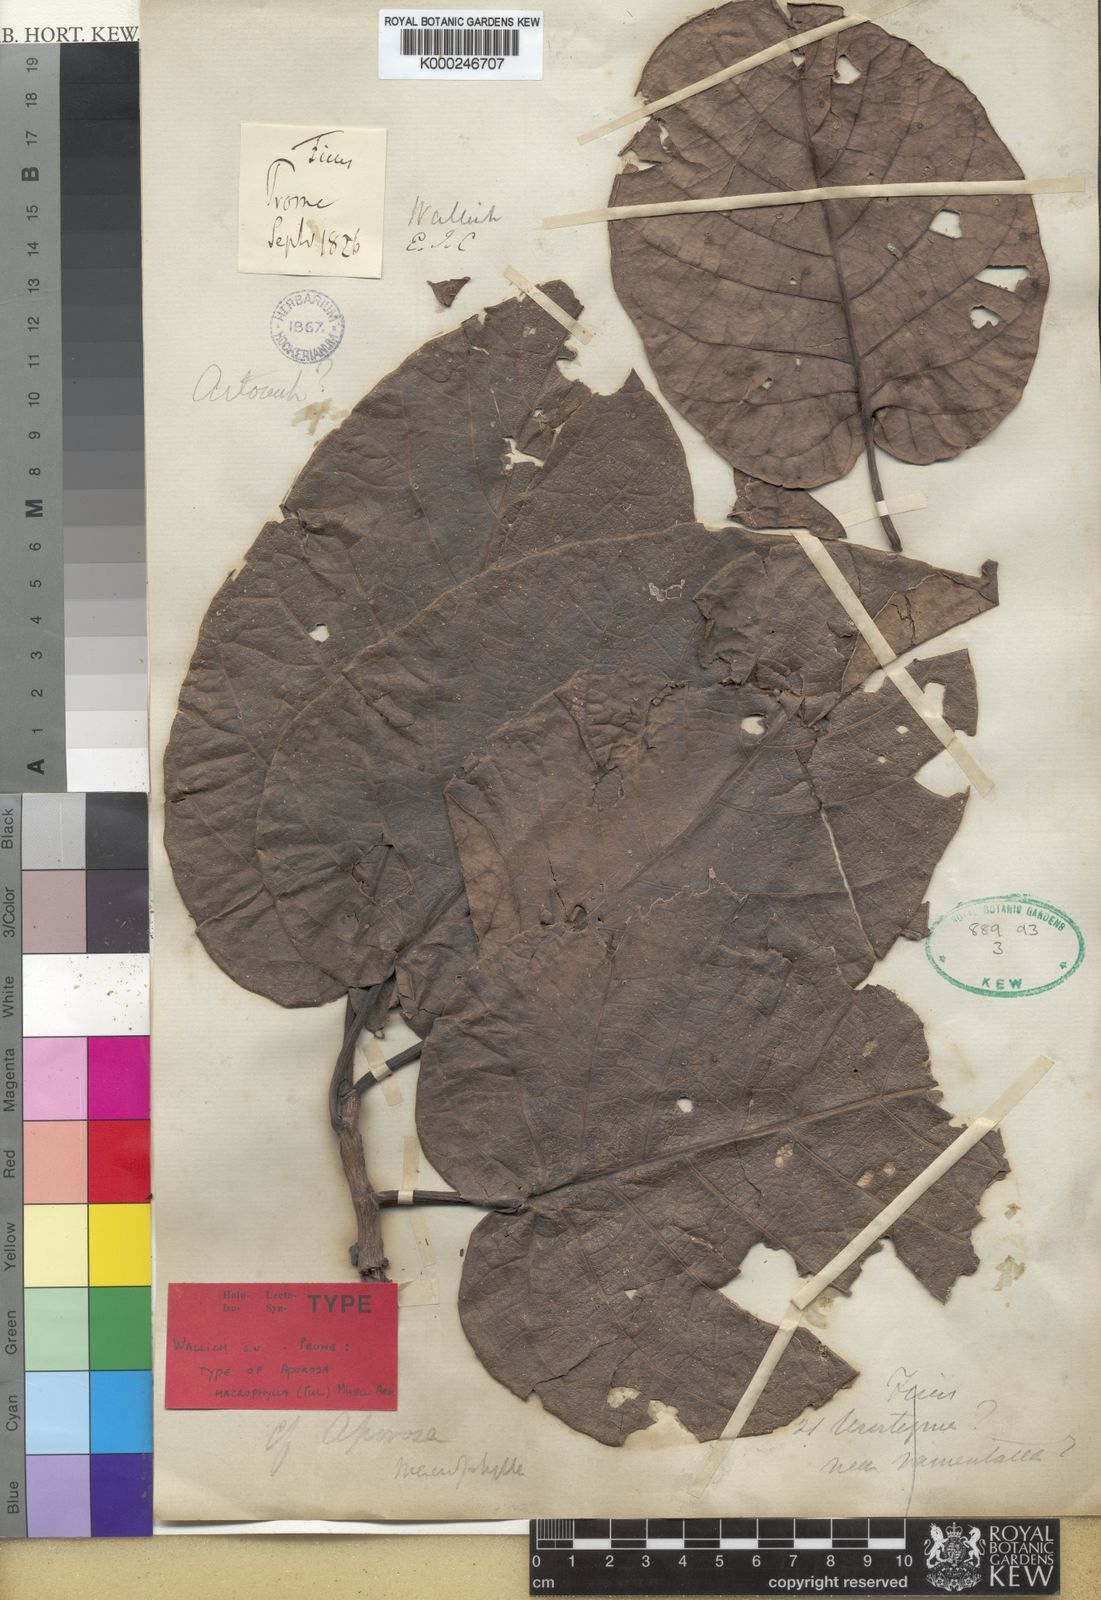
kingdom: Plantae
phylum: Tracheophyta
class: Magnoliopsida
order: Malpighiales
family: Phyllanthaceae
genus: Aporosa
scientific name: Aporosa
